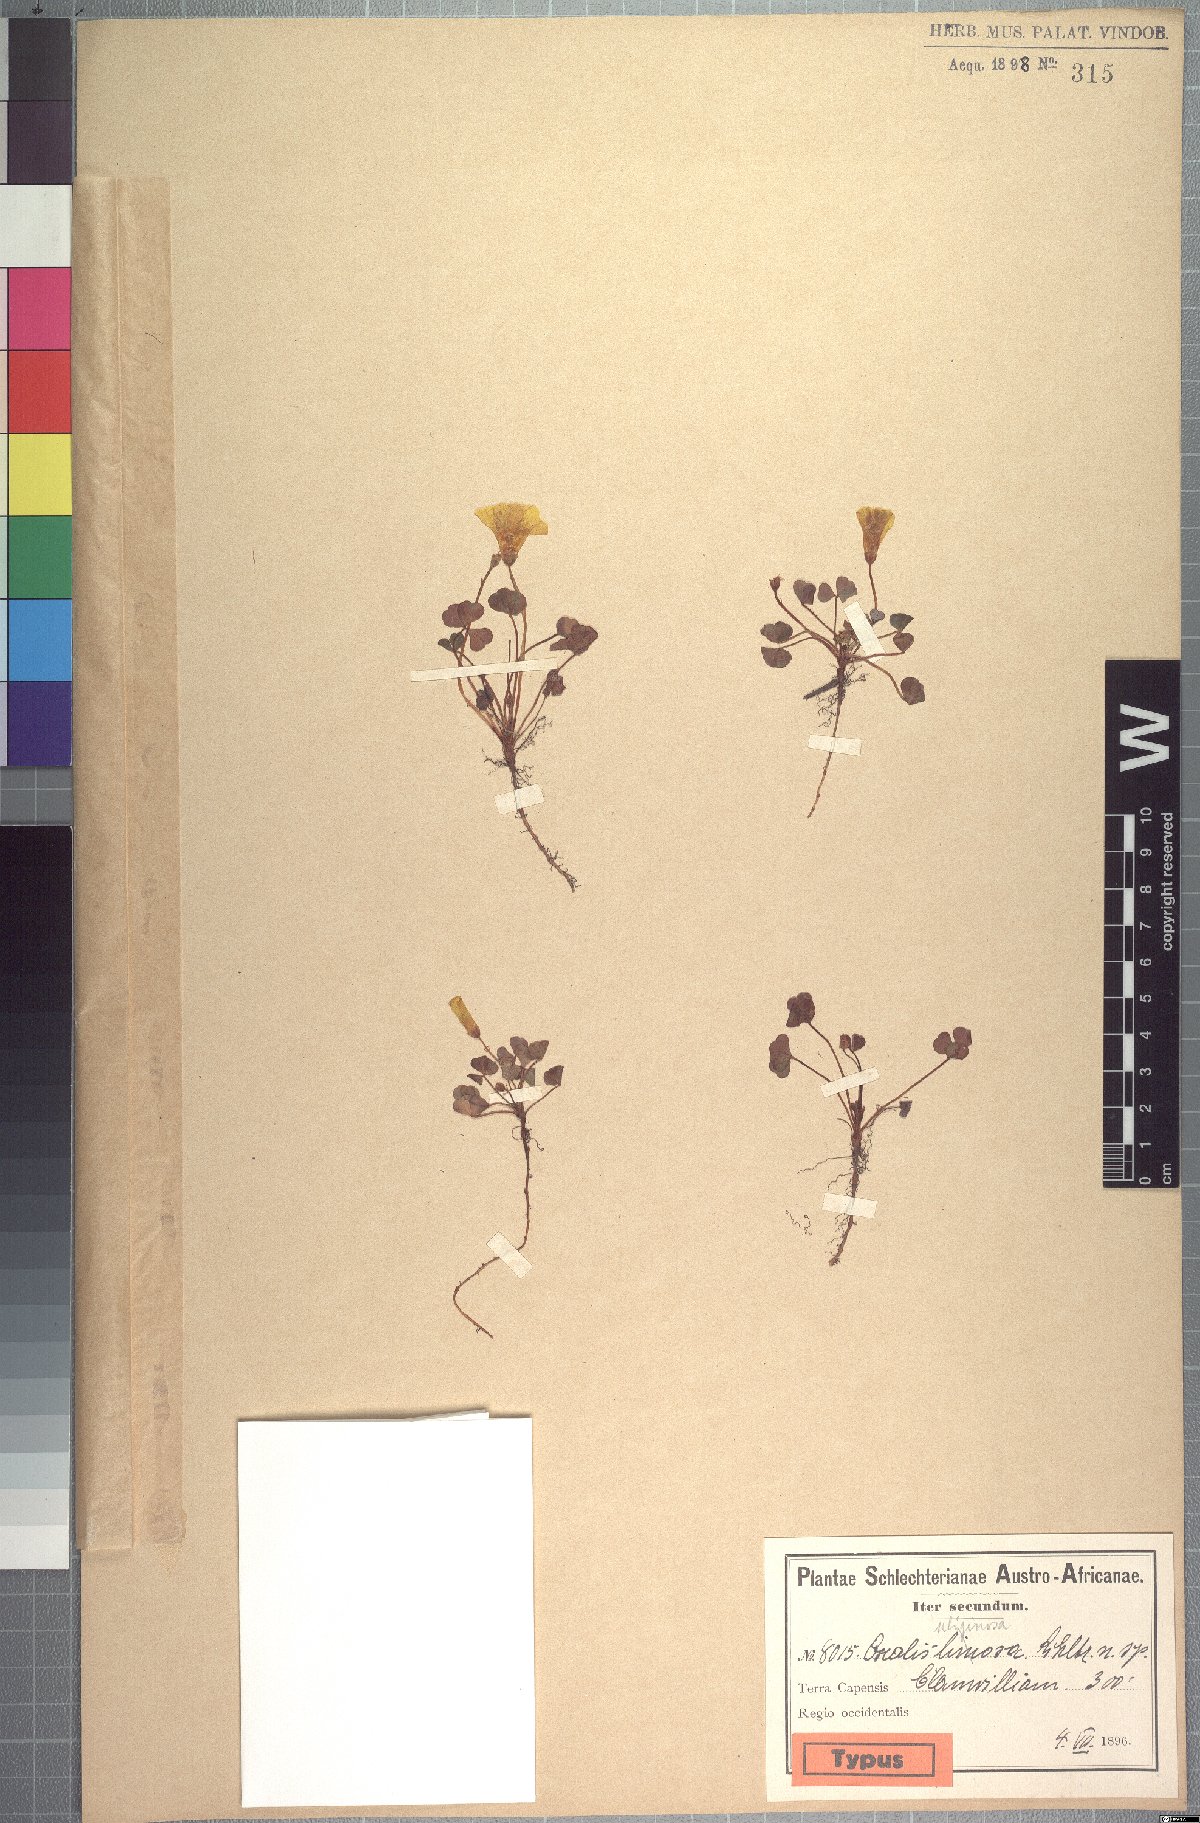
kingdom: Plantae
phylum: Tracheophyta
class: Magnoliopsida
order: Oxalidales
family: Oxalidaceae
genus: Oxalis
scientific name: Oxalis phloxidiflora
